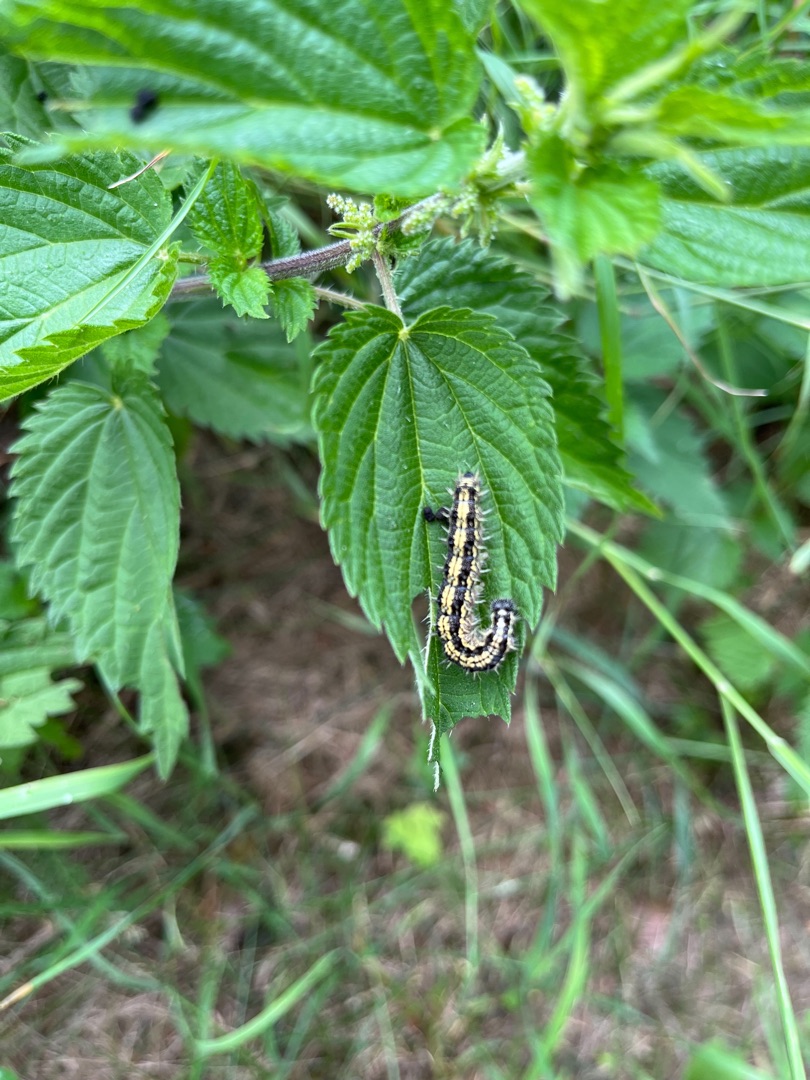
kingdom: Animalia
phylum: Arthropoda
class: Insecta
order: Lepidoptera
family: Nymphalidae
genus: Aglais
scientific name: Aglais urticae
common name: Nældens takvinge
